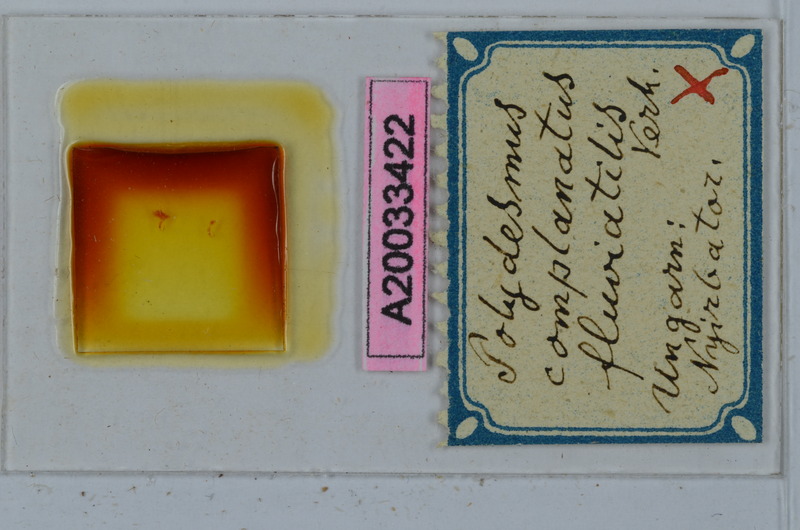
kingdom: Animalia
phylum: Arthropoda
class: Diplopoda
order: Polydesmida
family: Polydesmidae
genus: Polydesmus
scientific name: Polydesmus complanatus
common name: Flat-backed millipede
